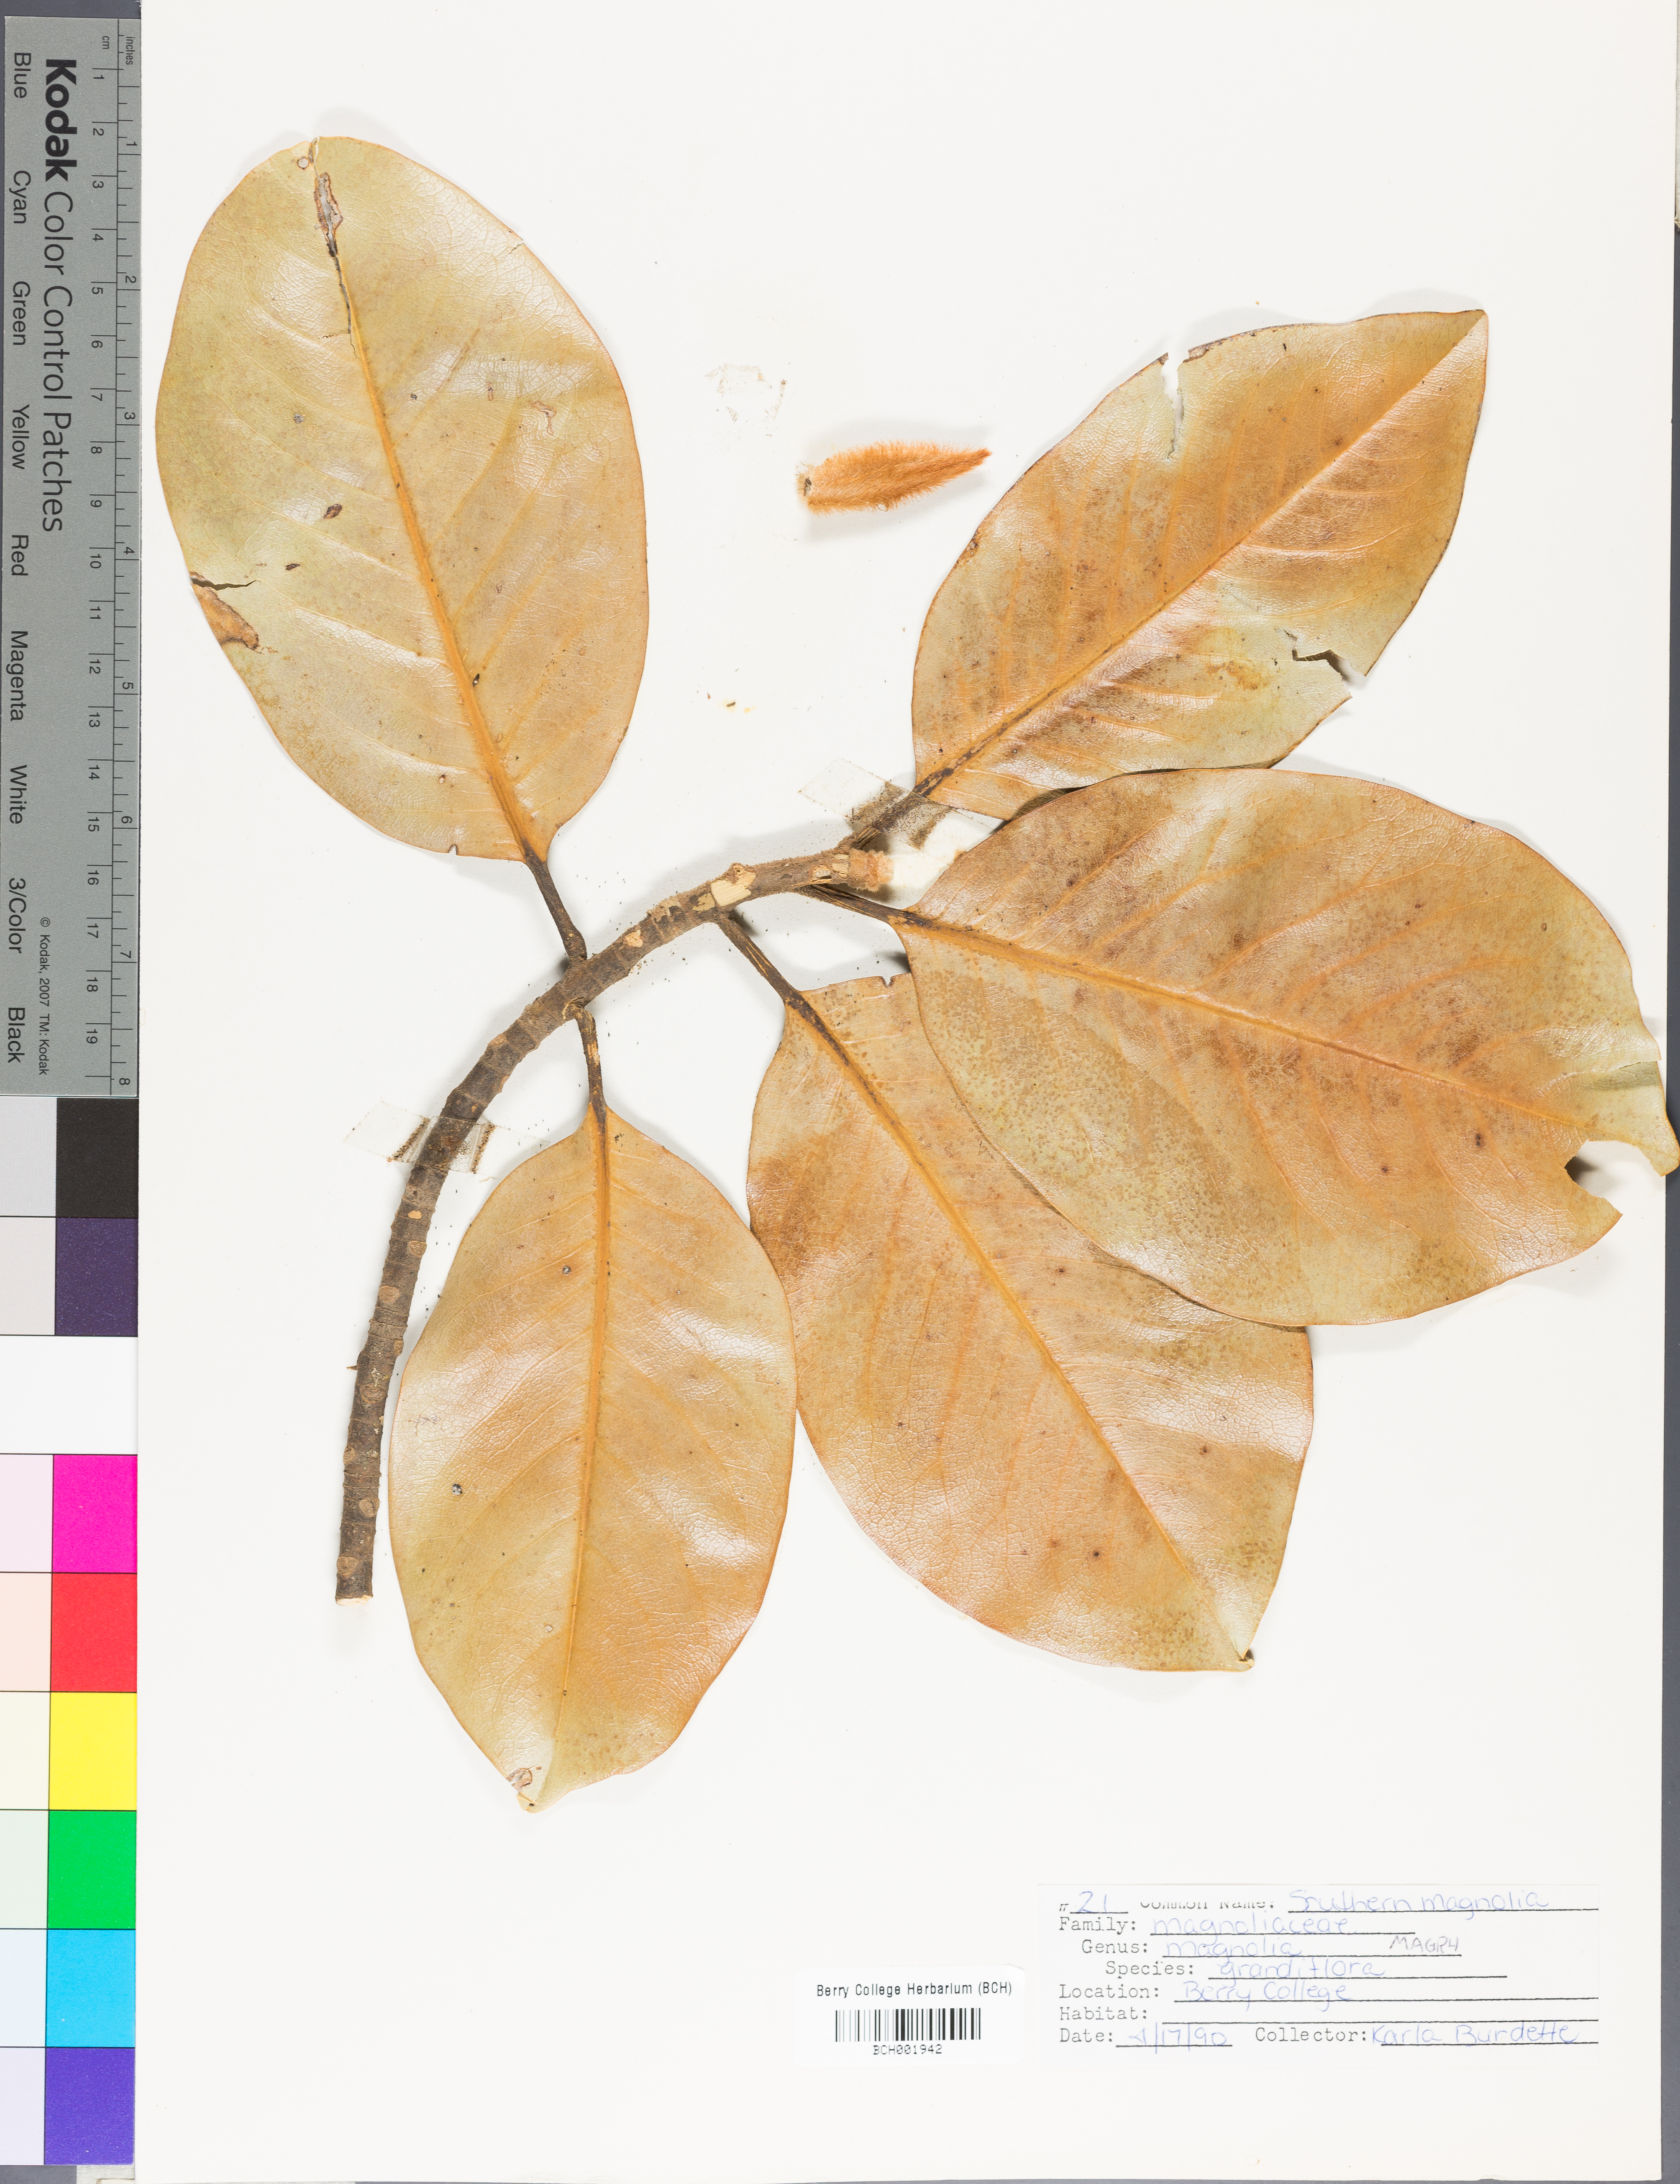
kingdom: Plantae
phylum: Tracheophyta
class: Magnoliopsida
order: Magnoliales
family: Magnoliaceae
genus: Magnolia
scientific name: Magnolia grandiflora
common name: Southern magnolia
